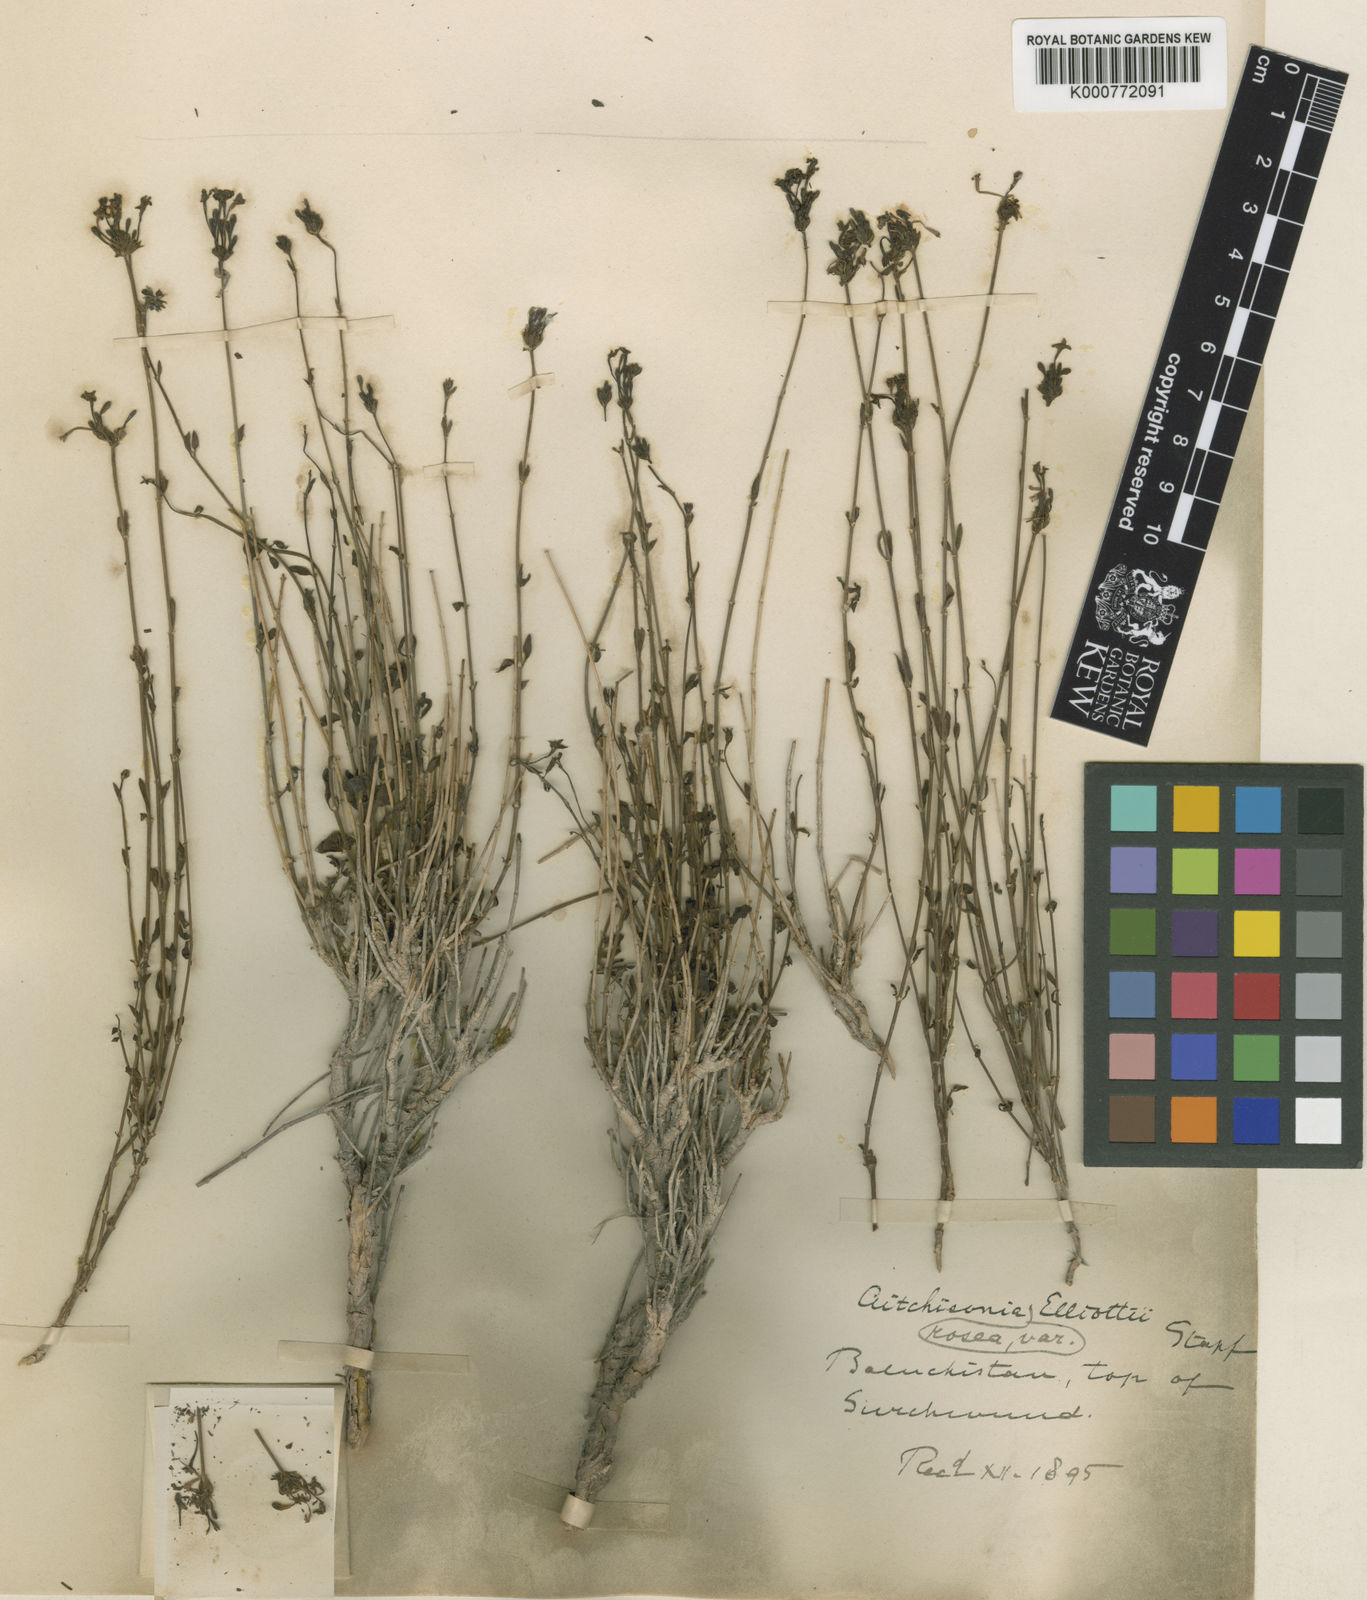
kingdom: Plantae
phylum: Tracheophyta
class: Magnoliopsida
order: Gentianales
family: Rubiaceae
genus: Aitchisonia
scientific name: Aitchisonia rosea
